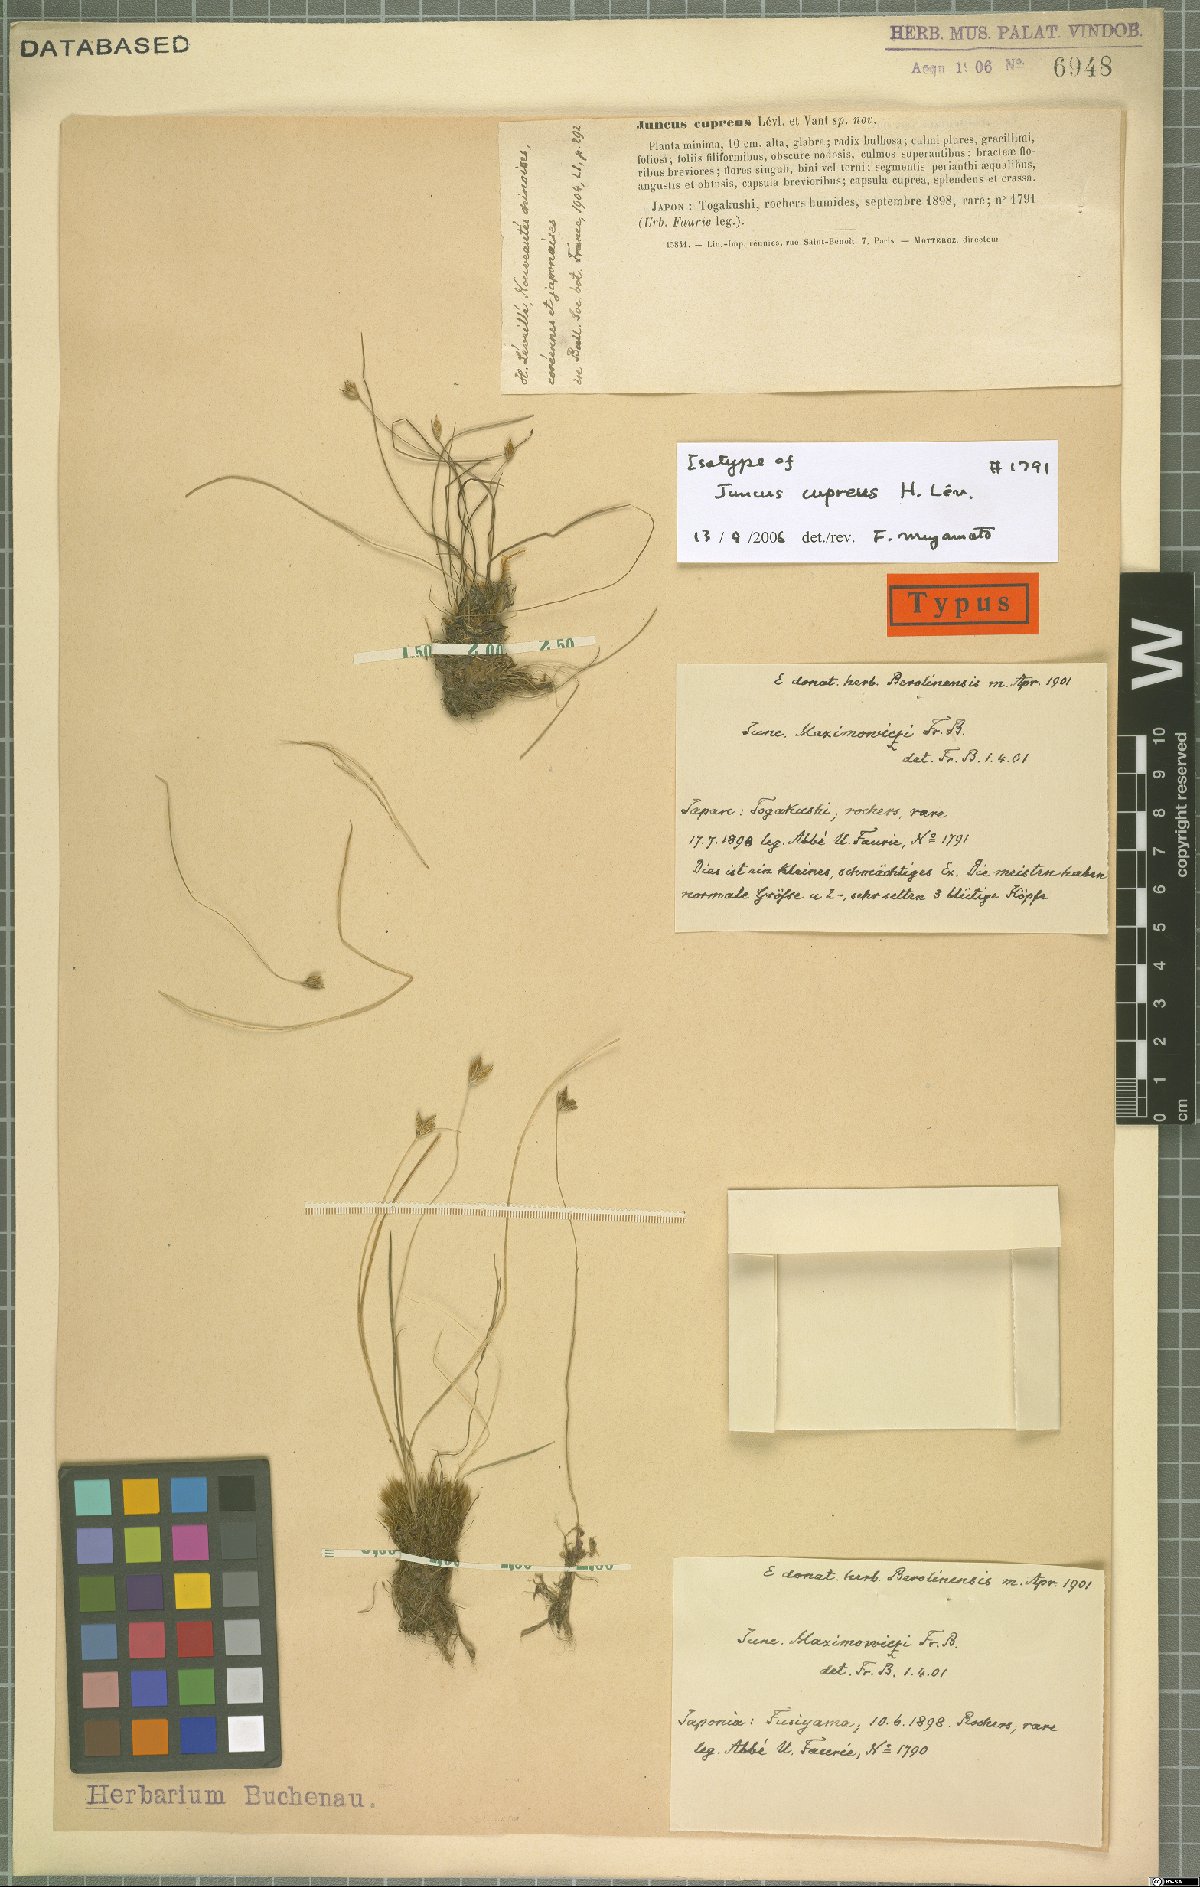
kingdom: Plantae
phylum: Tracheophyta
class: Liliopsida
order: Poales
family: Juncaceae
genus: Juncus
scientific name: Juncus maximowiczii
